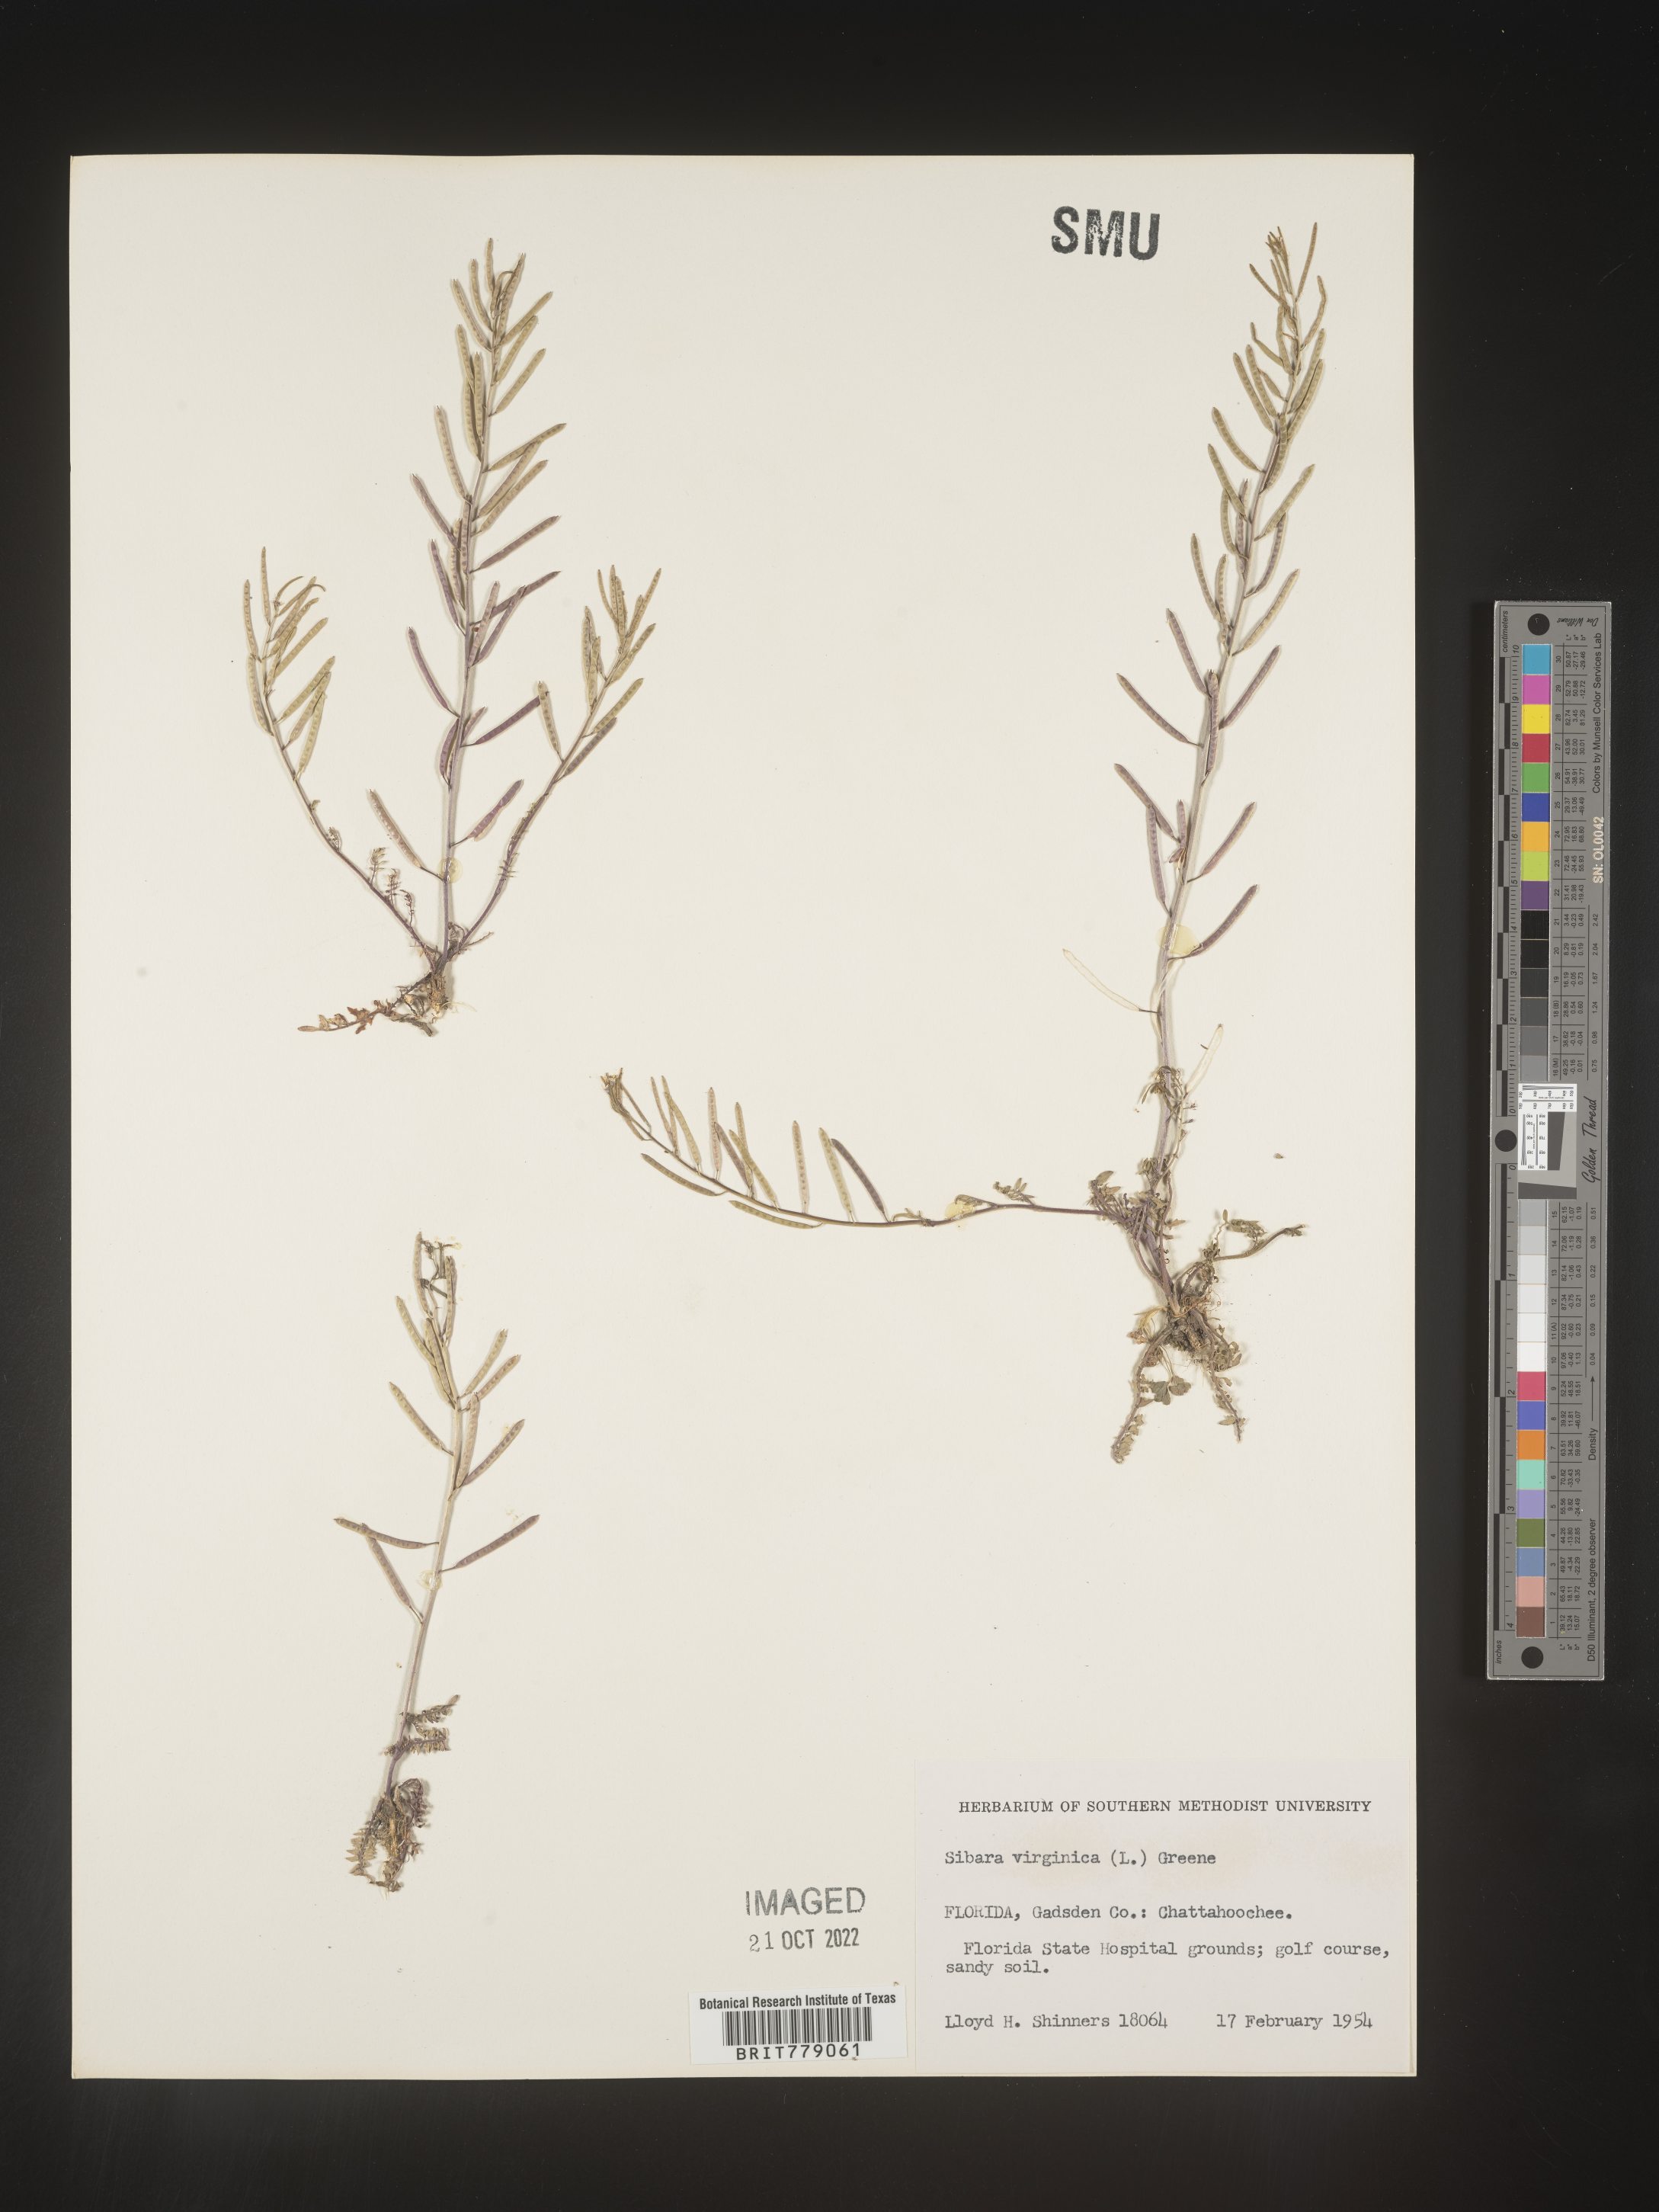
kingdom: Plantae
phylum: Tracheophyta
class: Magnoliopsida
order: Brassicales
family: Brassicaceae
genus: Sibara
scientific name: Sibara
